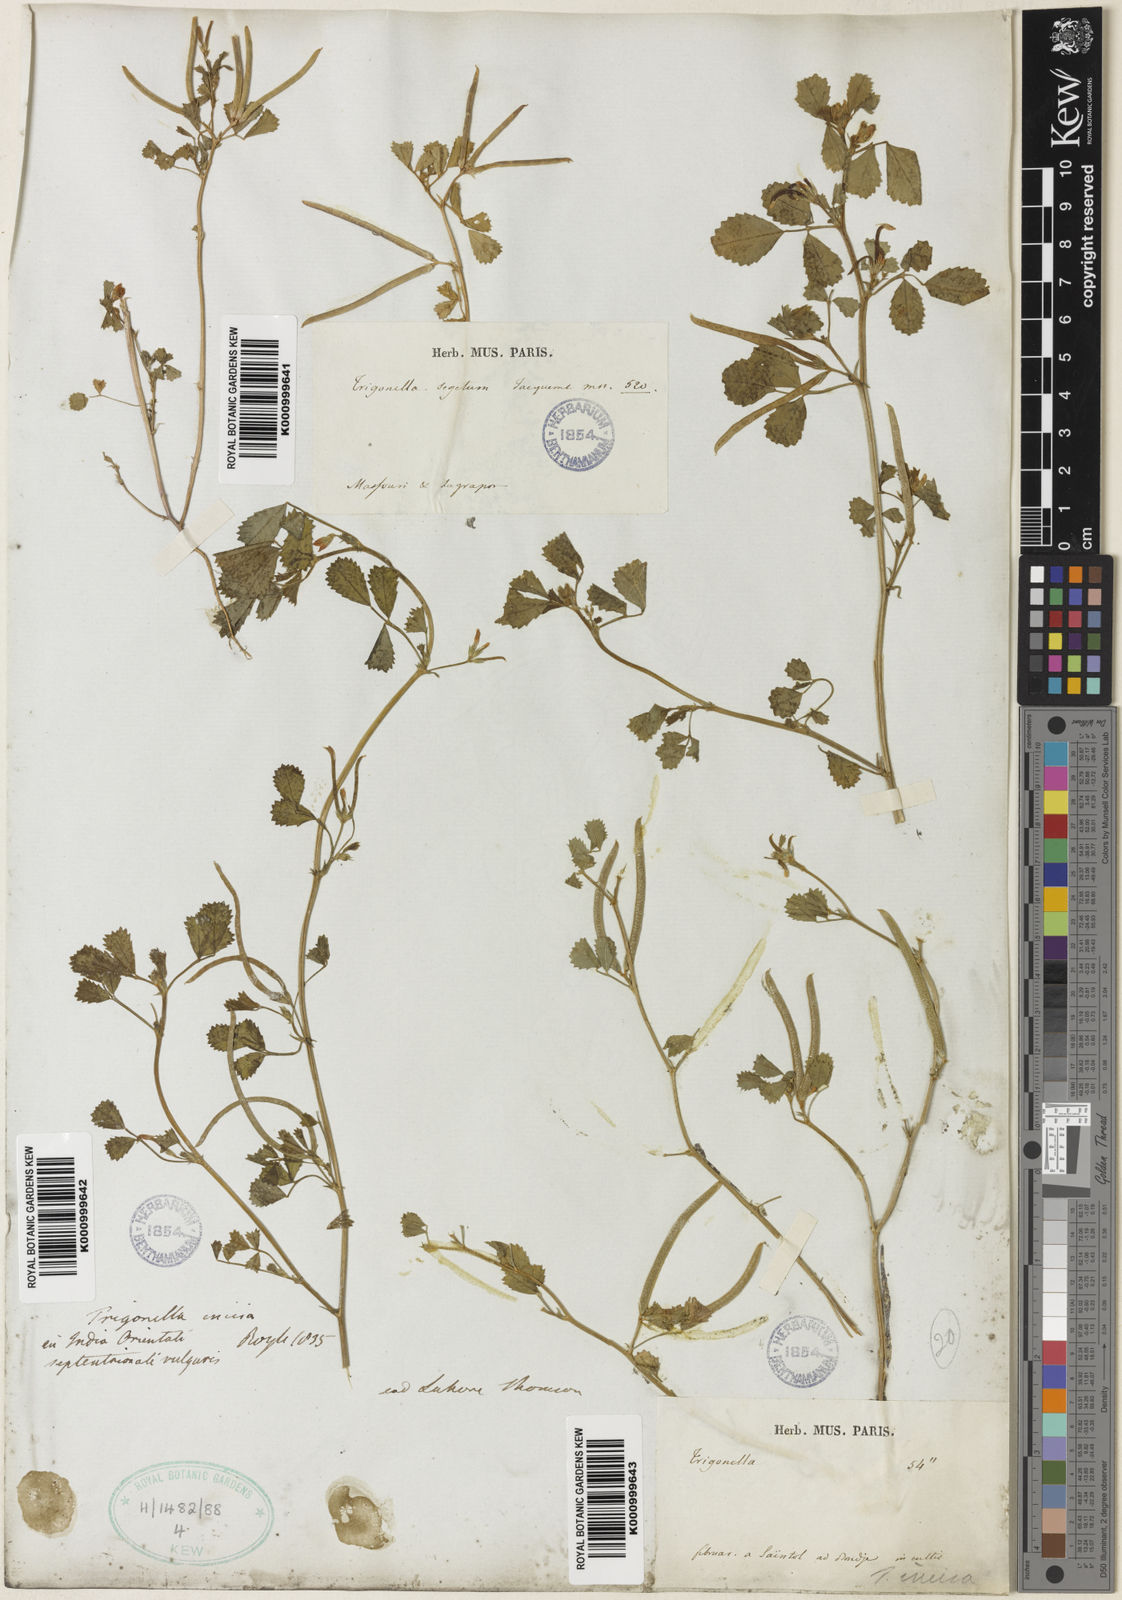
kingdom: Plantae
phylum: Tracheophyta
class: Magnoliopsida
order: Fabales
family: Fabaceae
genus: Medicago
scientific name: Medicago monantha
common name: Medick
